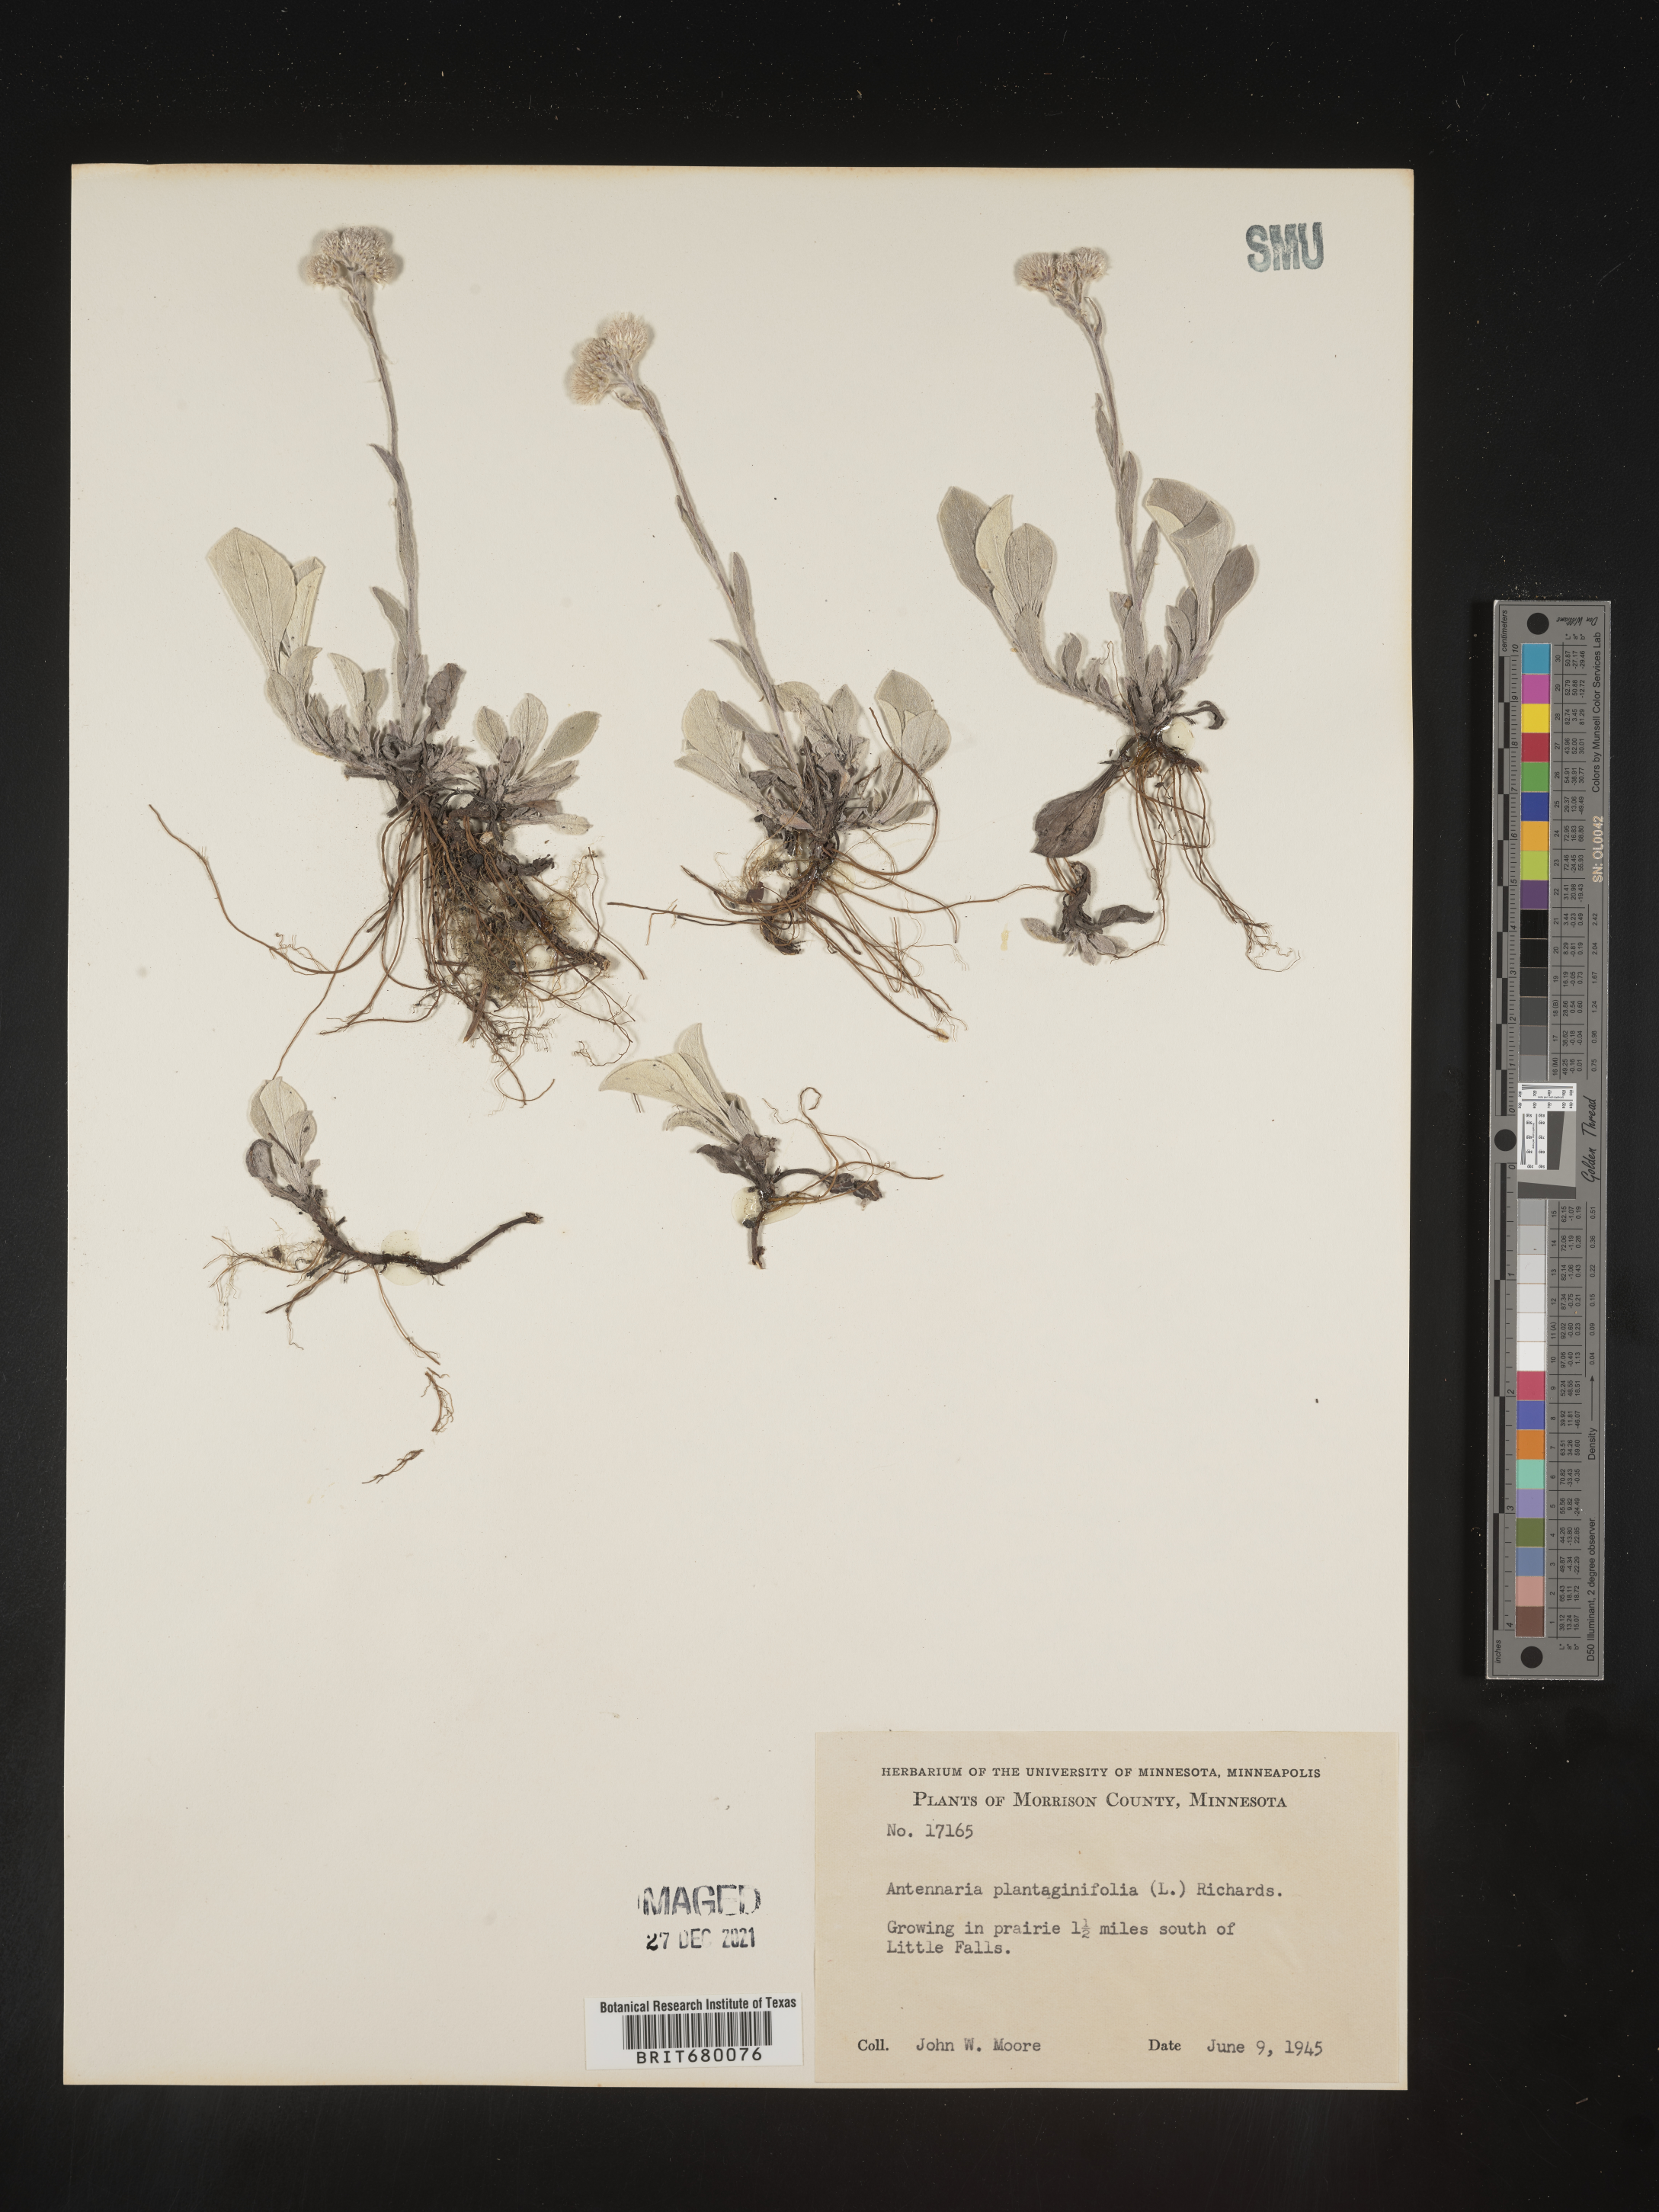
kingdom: Plantae
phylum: Tracheophyta
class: Magnoliopsida
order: Asterales
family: Asteraceae
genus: Antennaria
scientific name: Antennaria plantaginifolia
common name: Plantain-leaved pussytoes
